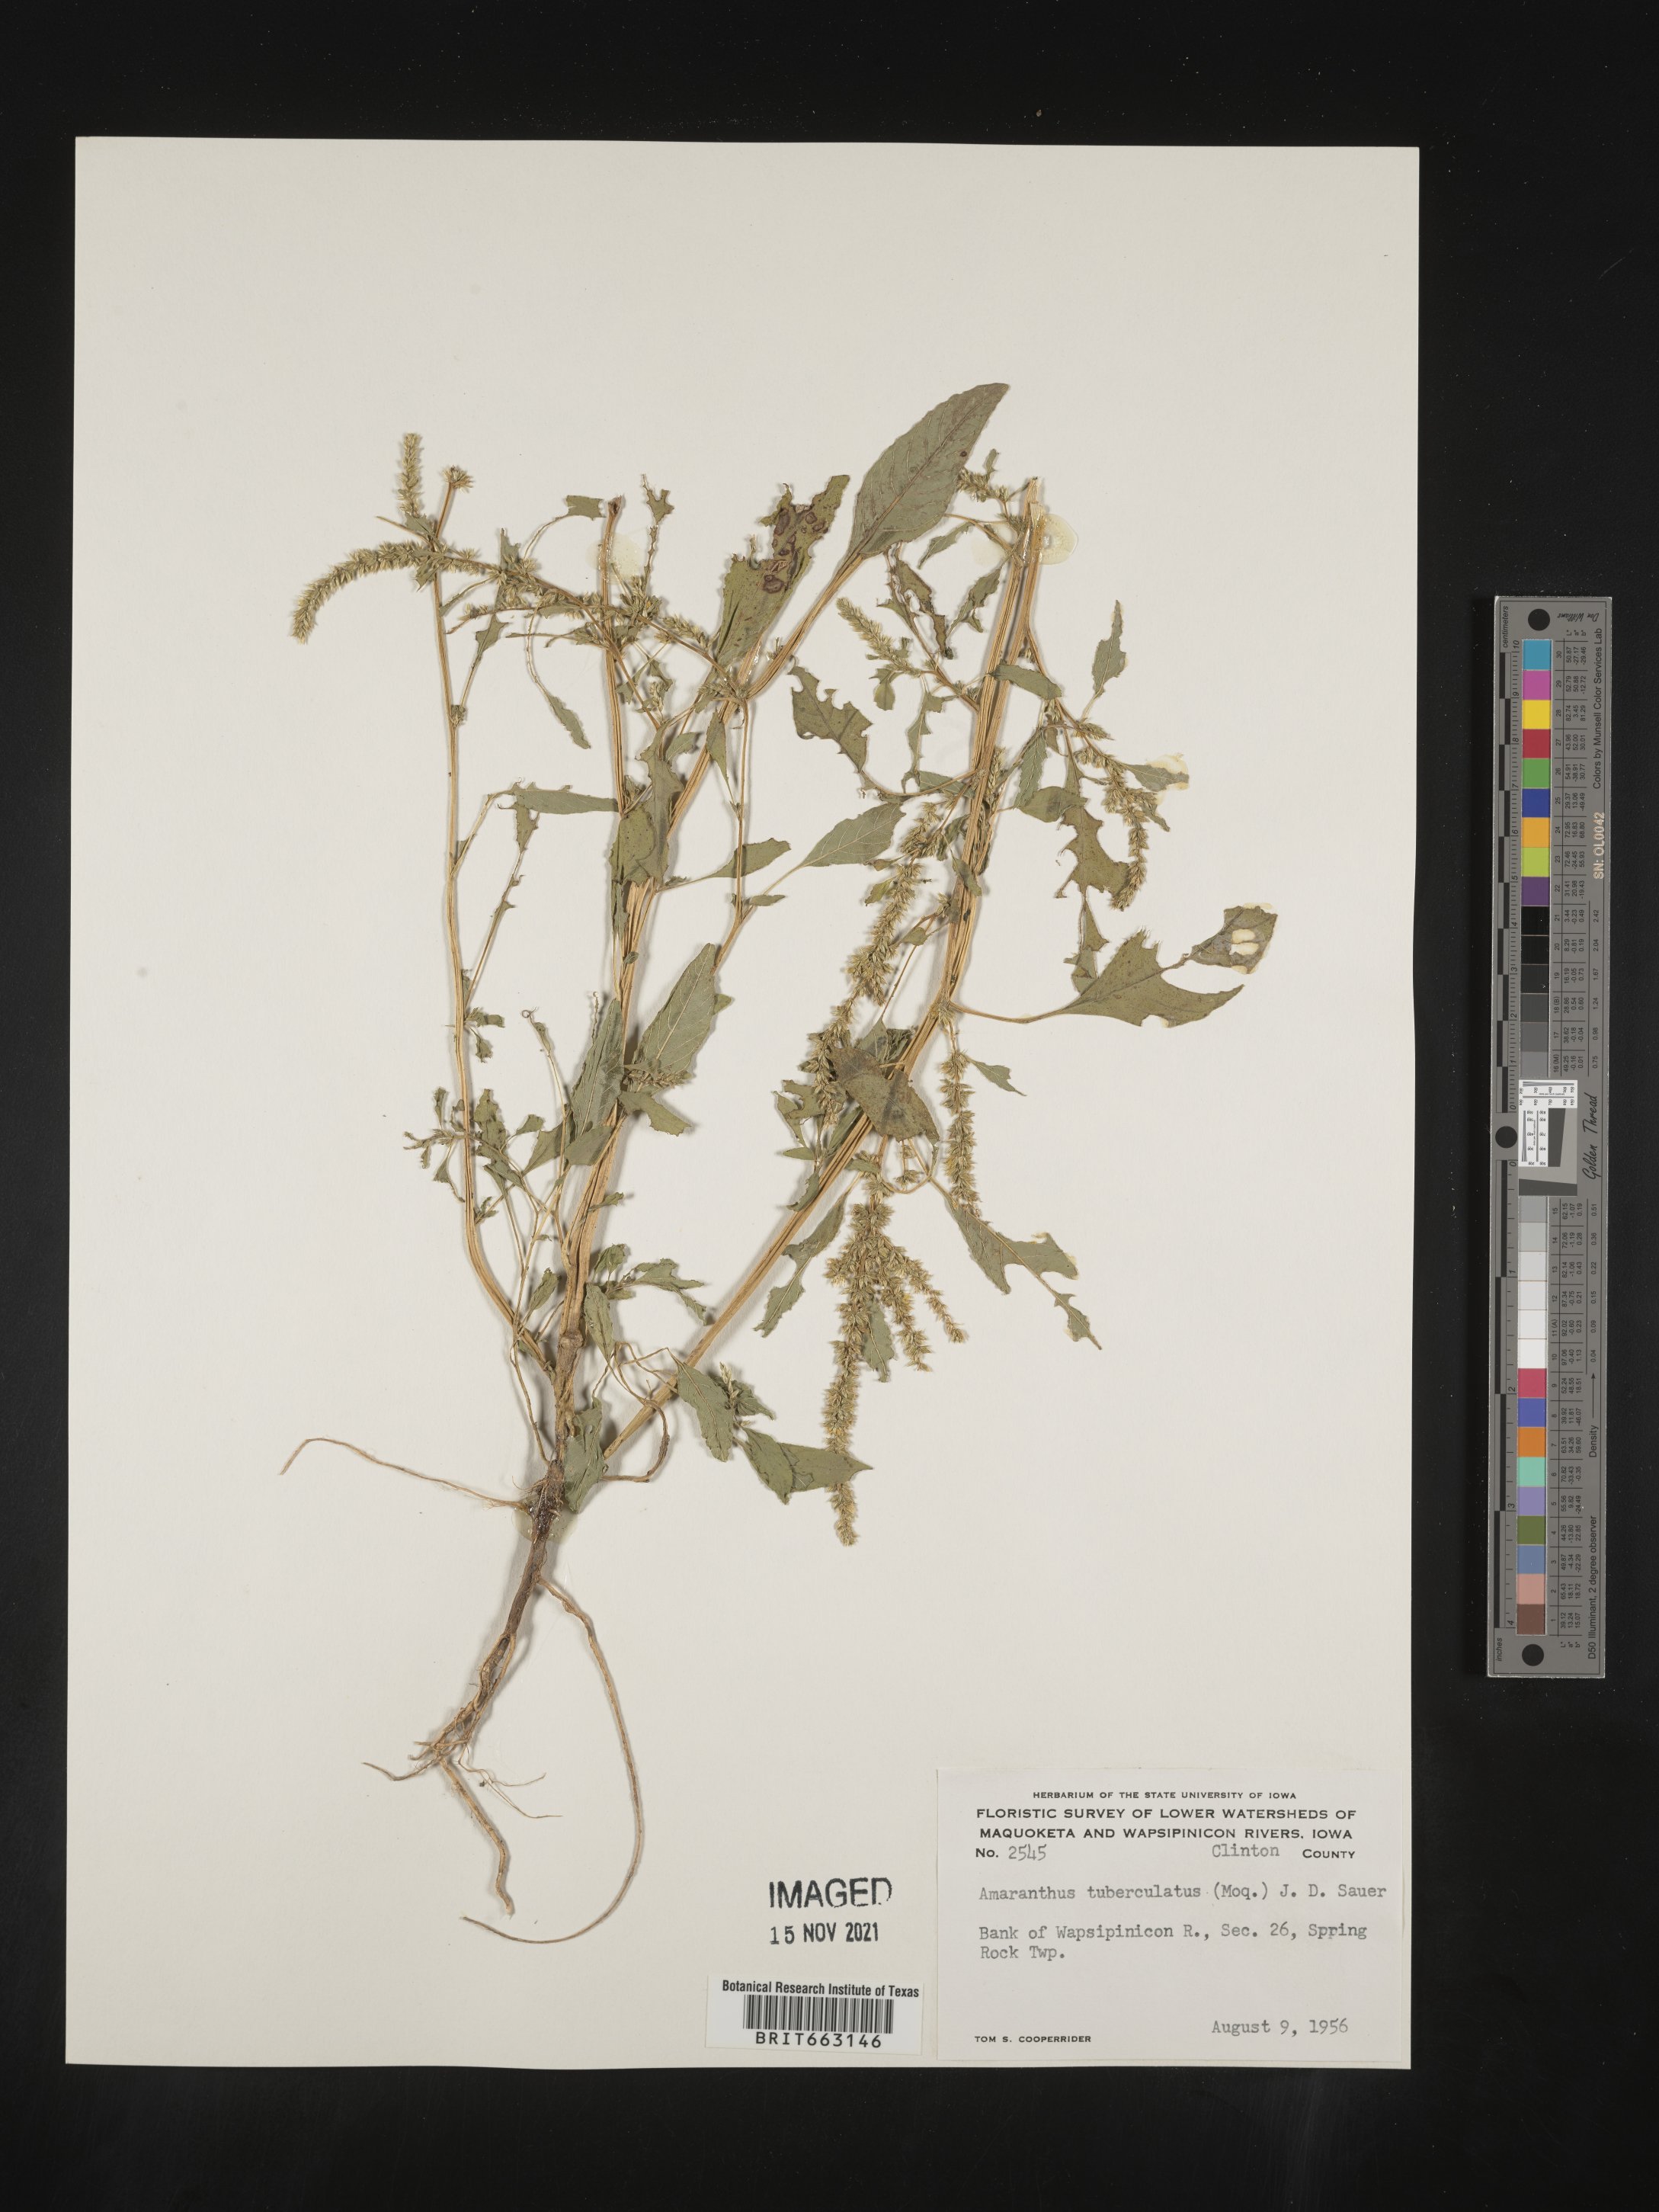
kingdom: Plantae
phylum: Tracheophyta
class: Magnoliopsida
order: Caryophyllales
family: Amaranthaceae
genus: Amaranthus
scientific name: Amaranthus tuberculatus
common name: Rough-fruit amaranth
